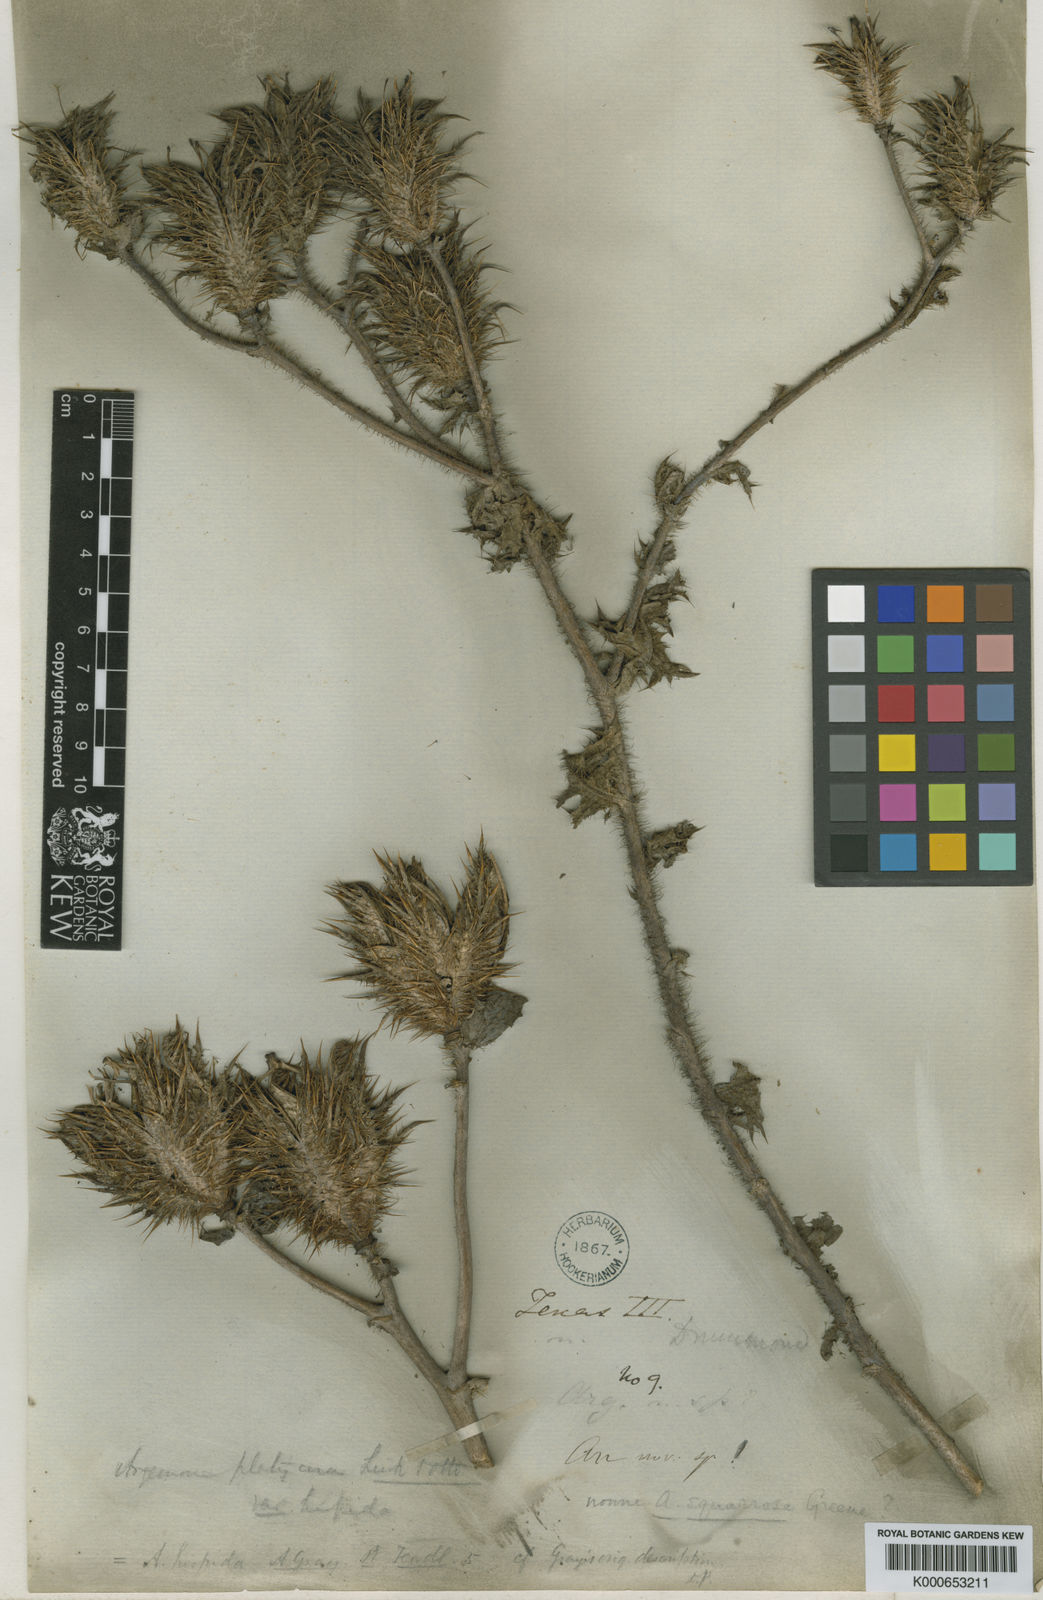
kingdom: Plantae
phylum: Tracheophyta
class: Magnoliopsida
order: Ranunculales
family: Papaveraceae
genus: Argemone
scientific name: Argemone squarrosa
